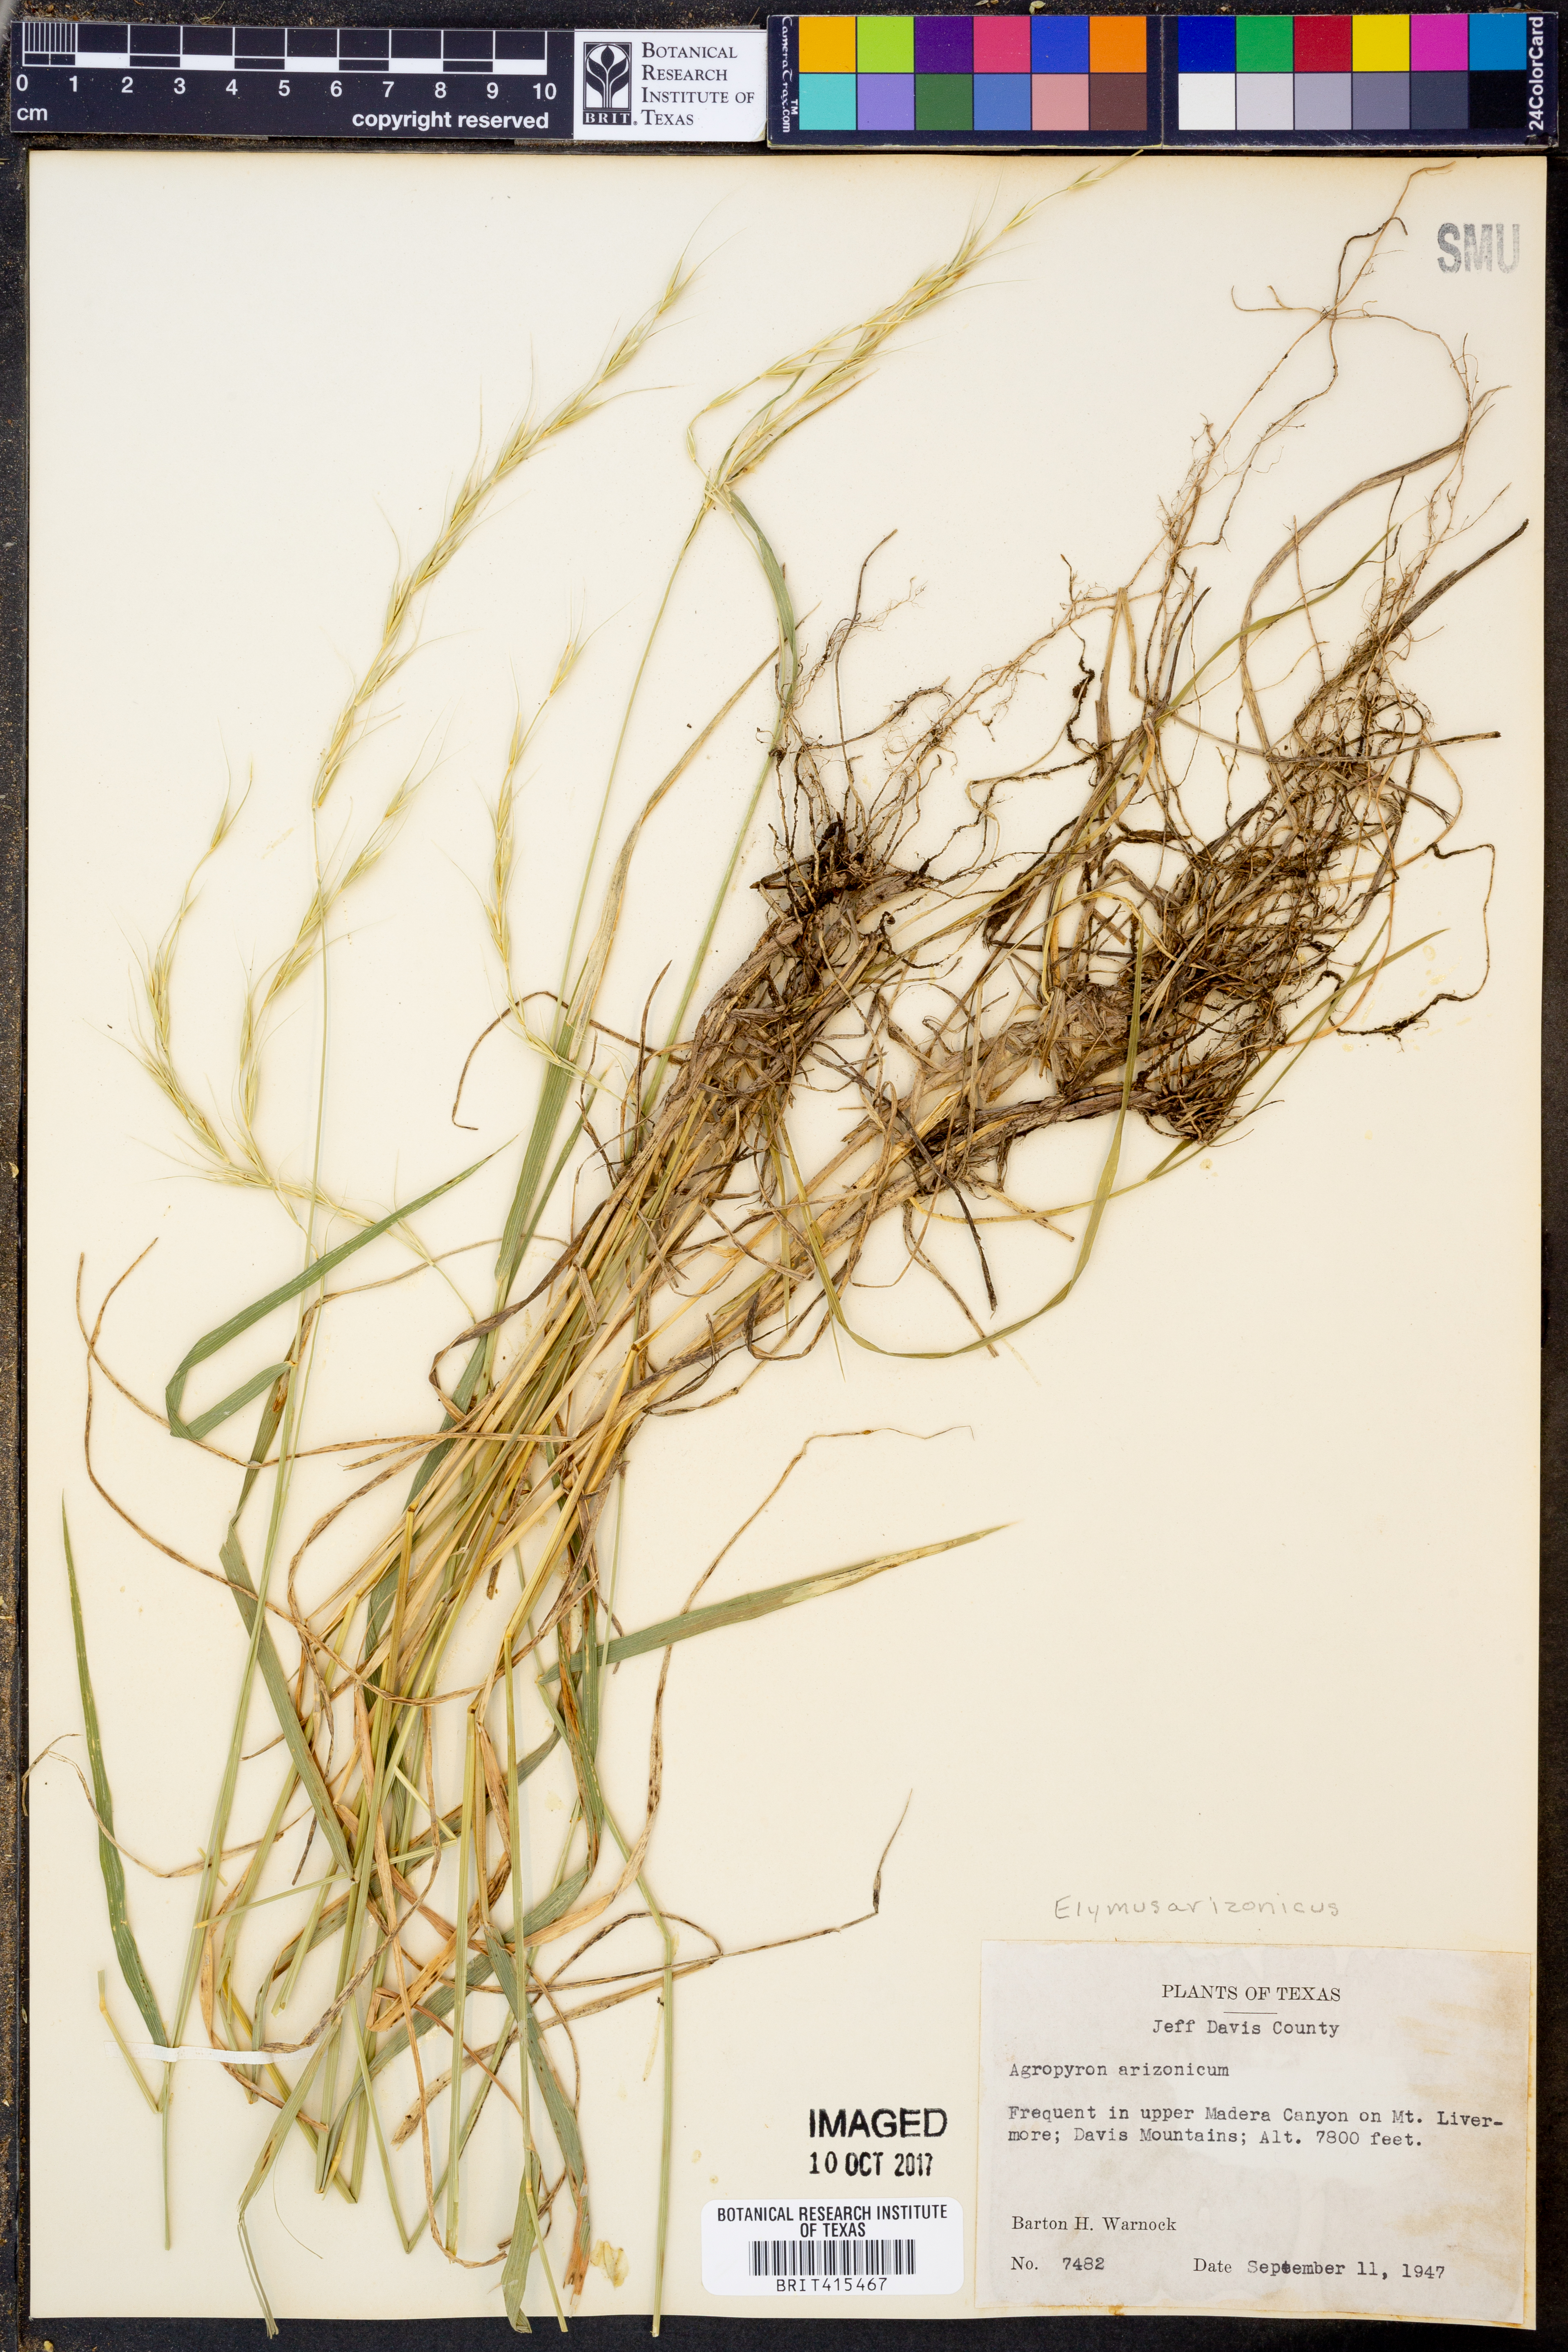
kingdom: Plantae
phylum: Tracheophyta
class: Liliopsida
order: Poales
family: Poaceae
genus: Elymus
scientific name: Elymus arizonicus
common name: Arizona wheatgrass
